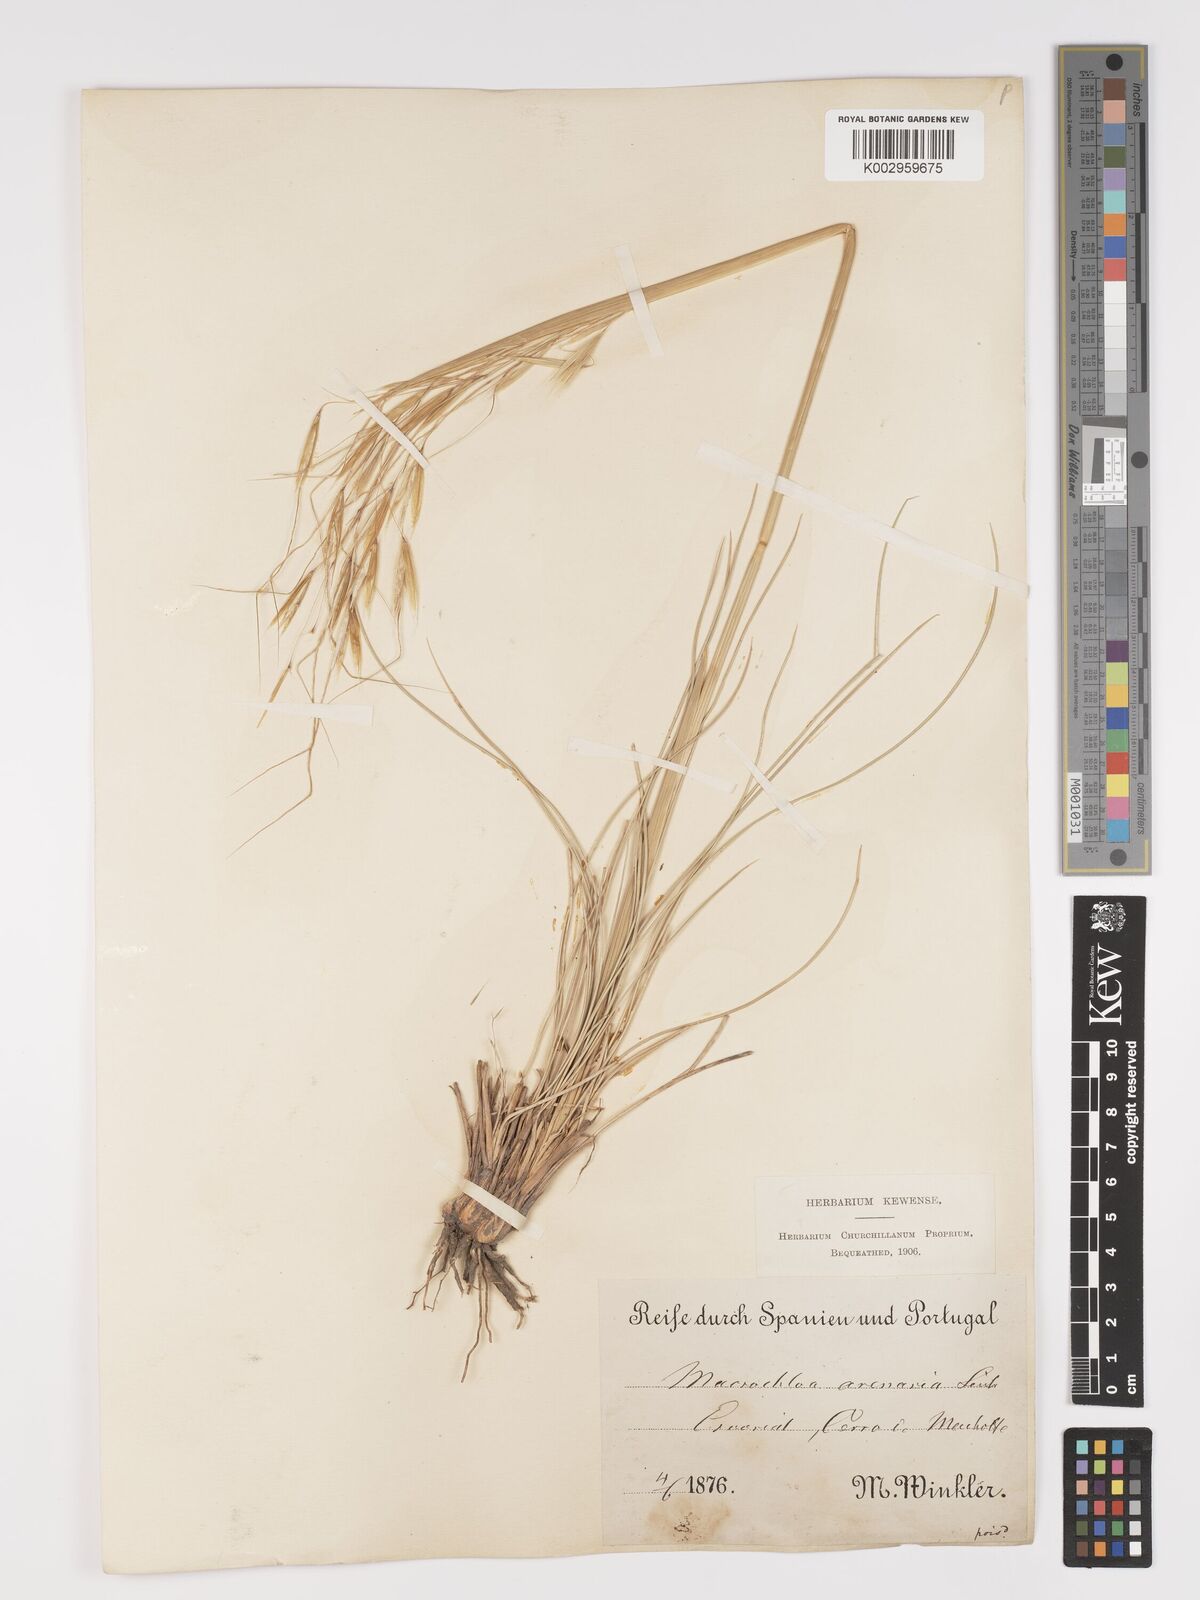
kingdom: Plantae
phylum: Tracheophyta
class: Liliopsida
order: Poales
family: Poaceae
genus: Celtica
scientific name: Celtica gigantea
